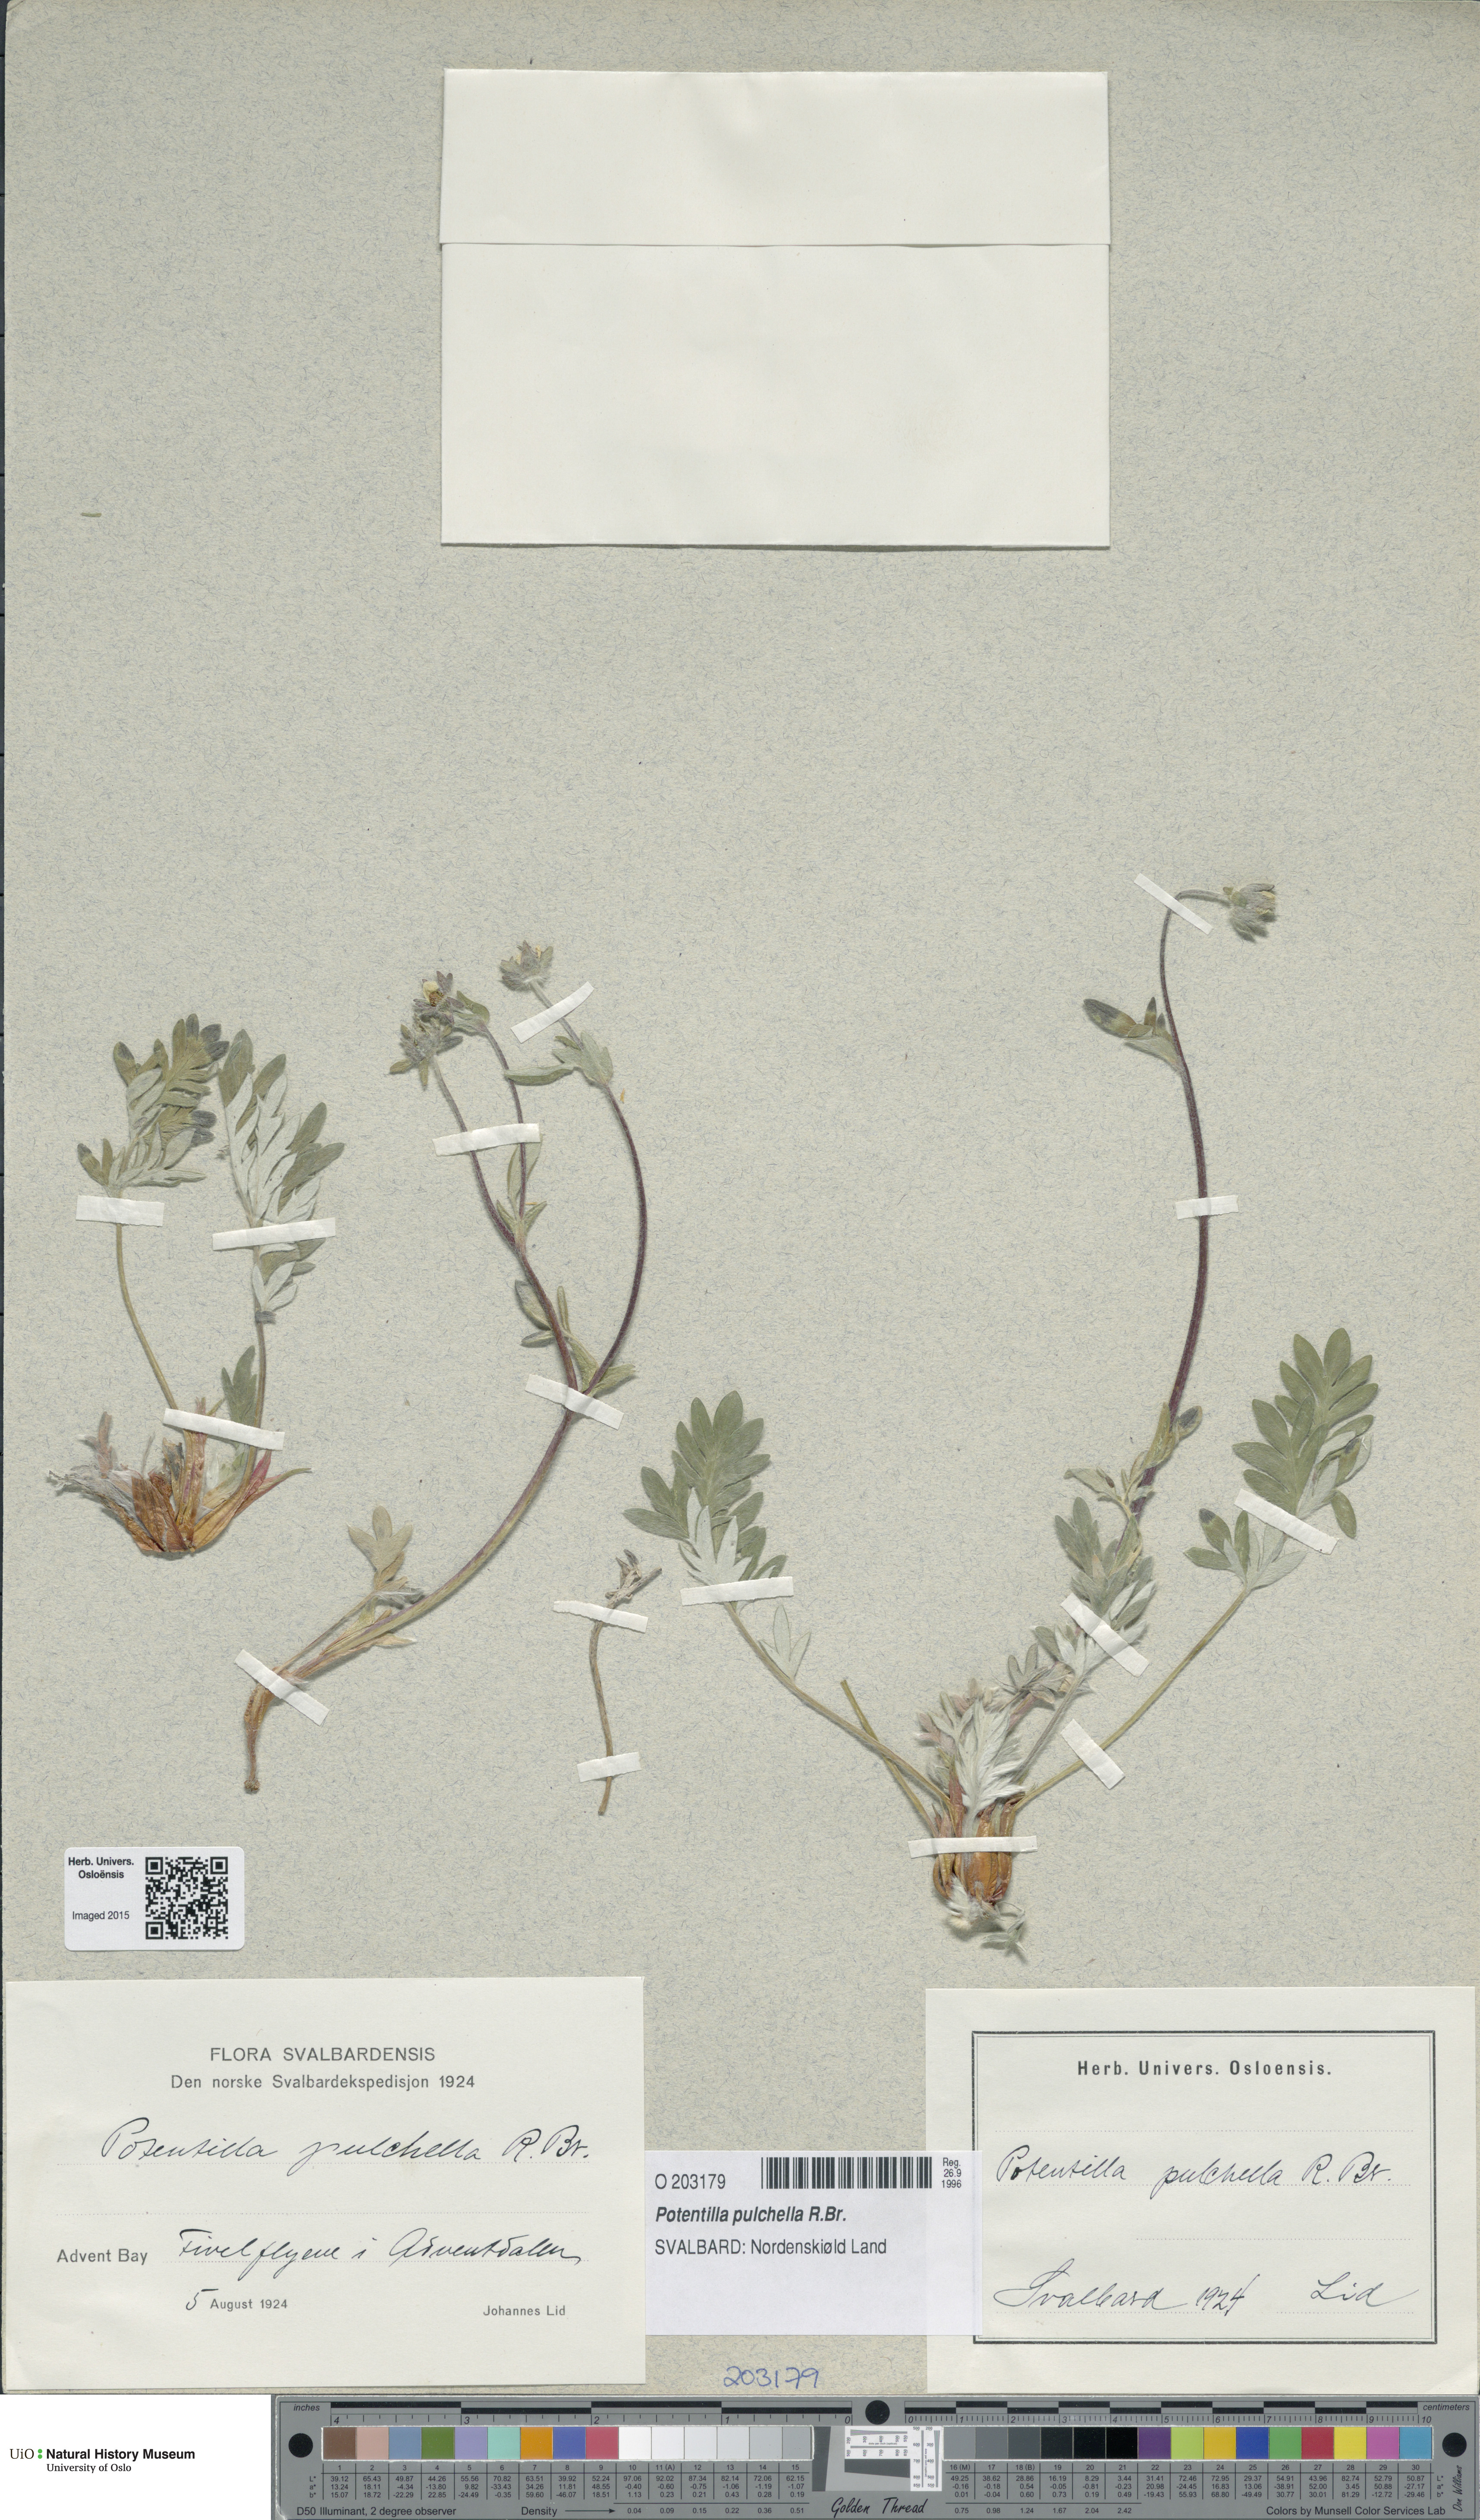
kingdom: Plantae
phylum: Tracheophyta
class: Magnoliopsida
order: Rosales
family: Rosaceae
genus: Potentilla
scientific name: Potentilla pulchella
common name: Pretty cinquefoil
